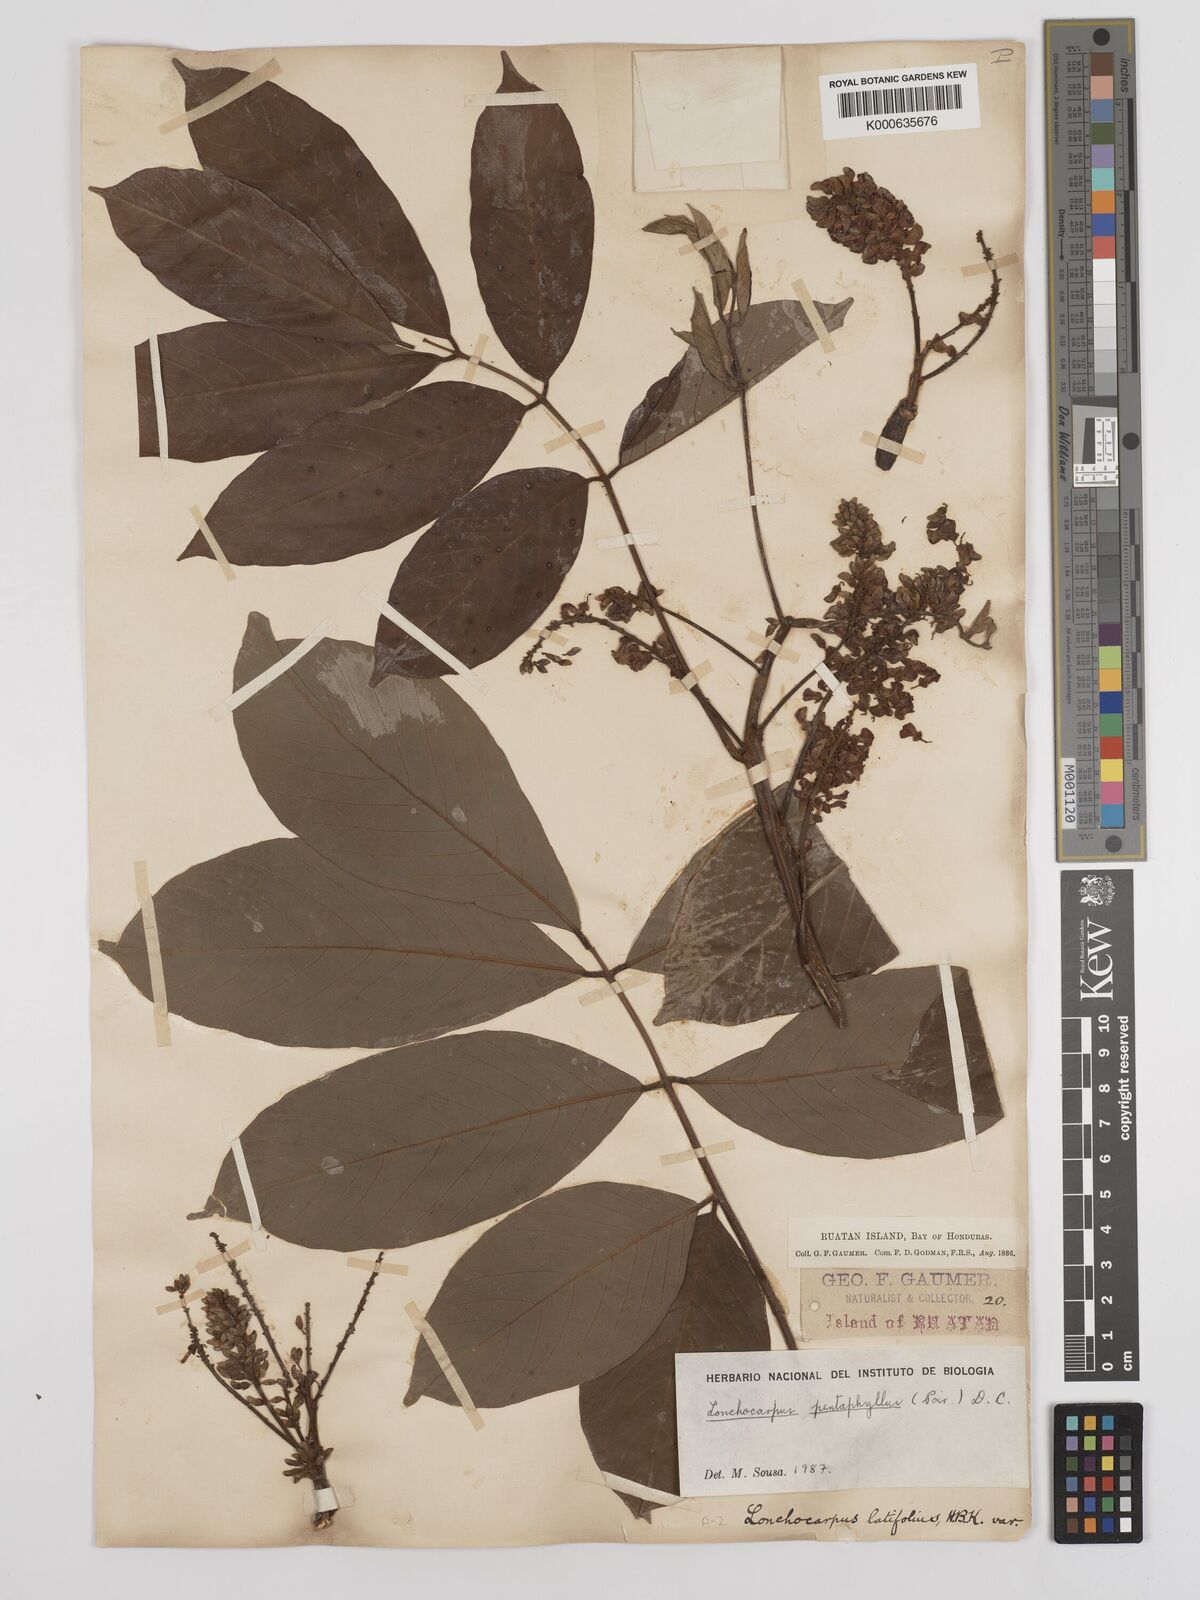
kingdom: Plantae
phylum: Tracheophyta
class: Magnoliopsida
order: Fabales
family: Fabaceae
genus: Lonchocarpus
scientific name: Lonchocarpus
